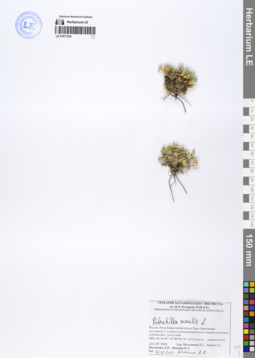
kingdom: Plantae
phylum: Tracheophyta
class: Magnoliopsida
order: Rosales
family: Rosaceae
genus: Potentilla
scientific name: Potentilla acaulis
